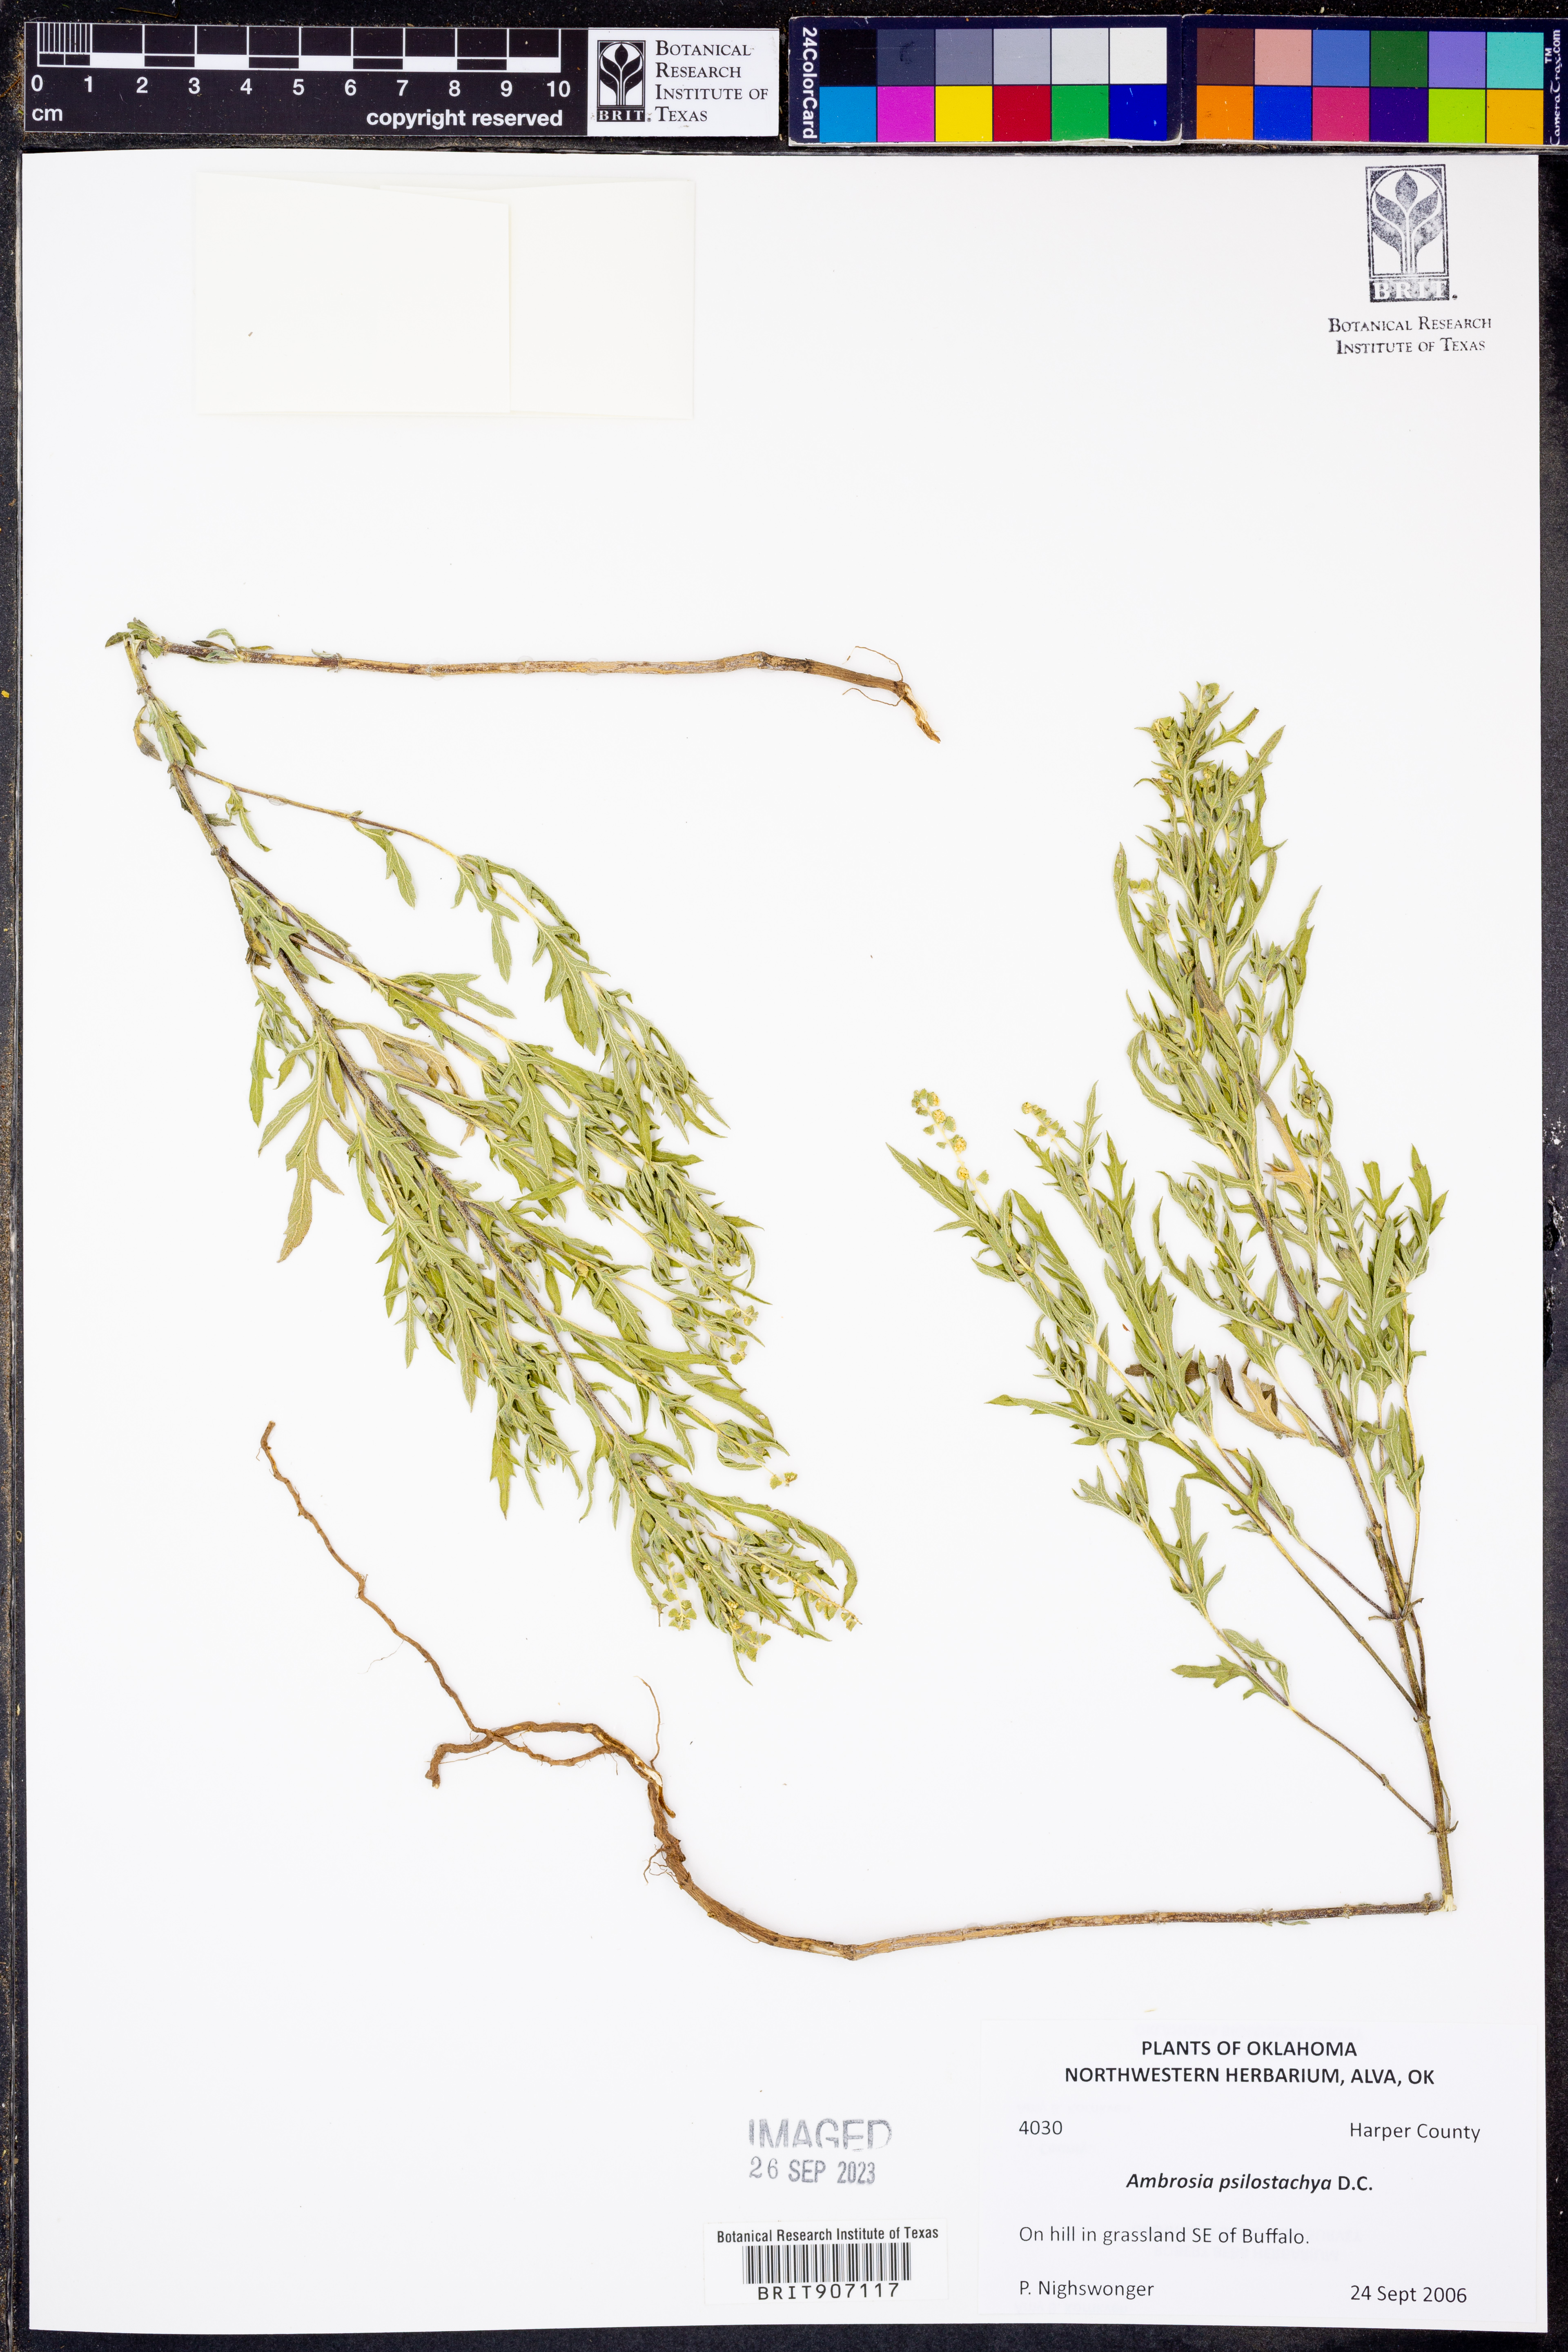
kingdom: Plantae
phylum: Tracheophyta
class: Magnoliopsida
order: Asterales
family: Asteraceae
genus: Ambrosia
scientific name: Ambrosia psilostachya
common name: Perennial ragweed
